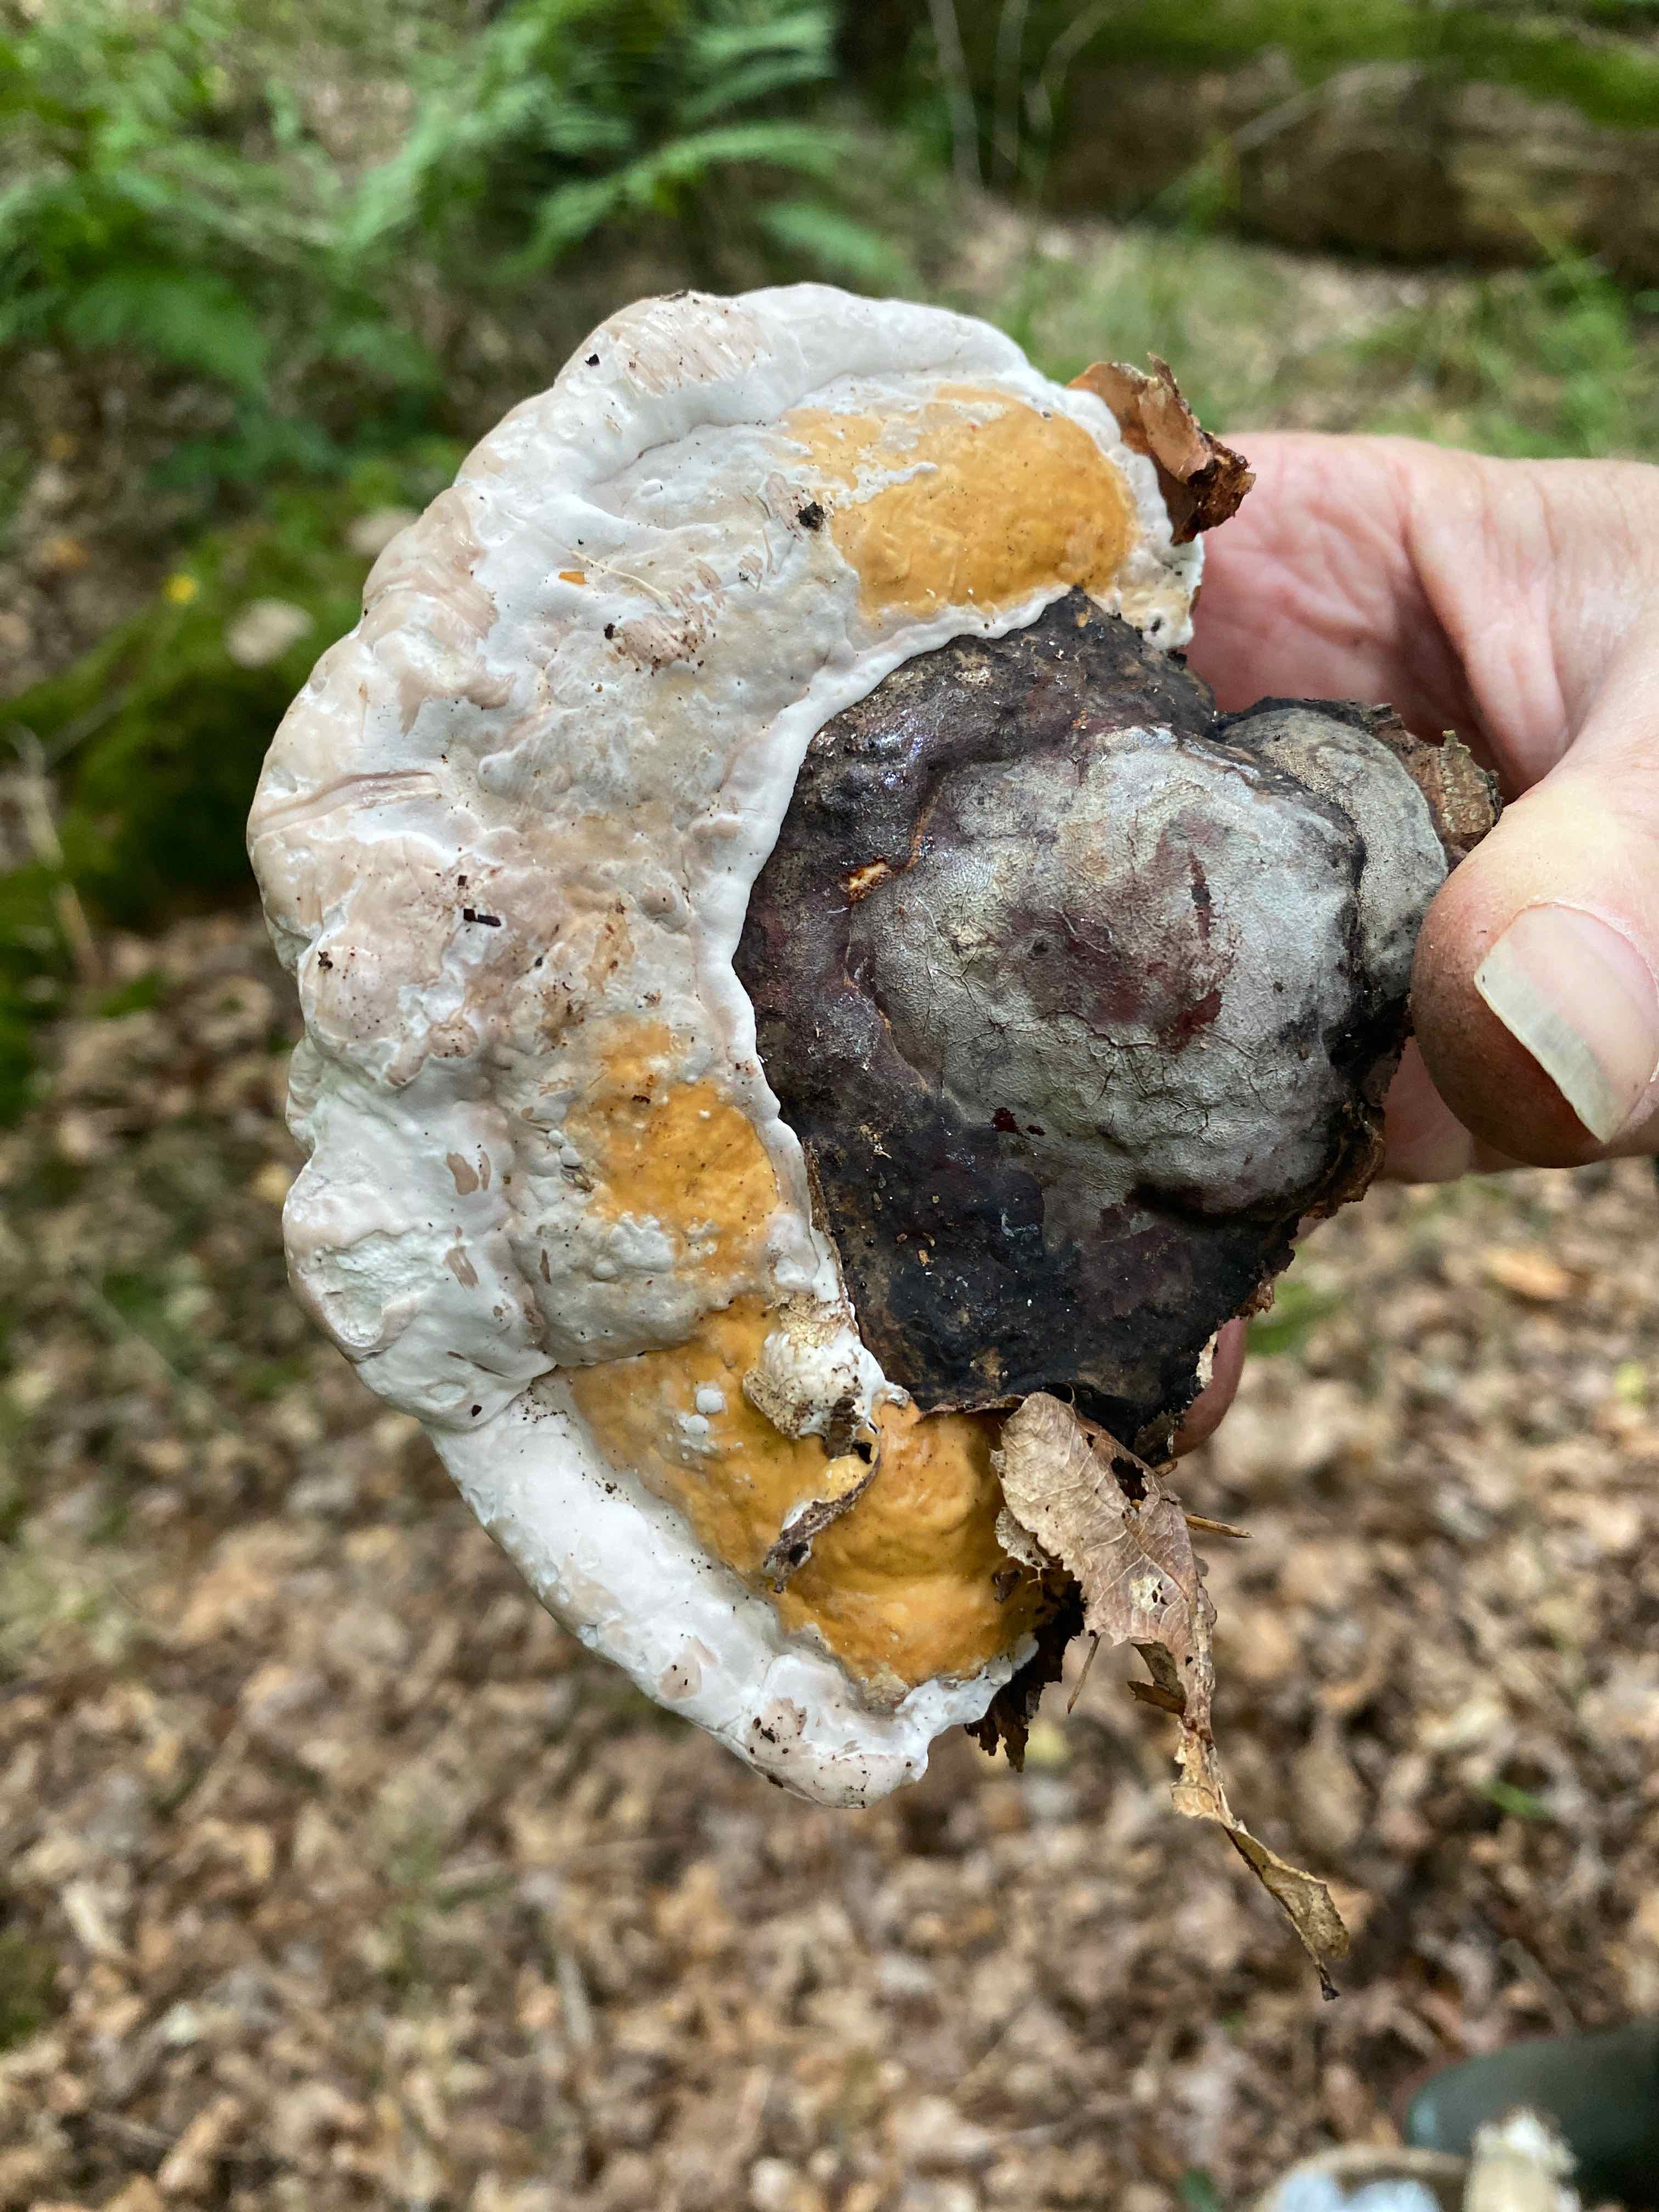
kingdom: Fungi
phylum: Basidiomycota
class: Agaricomycetes
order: Polyporales
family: Fomitopsidaceae
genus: Fomitopsis
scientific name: Fomitopsis pinicola
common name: randbæltet hovporesvamp
